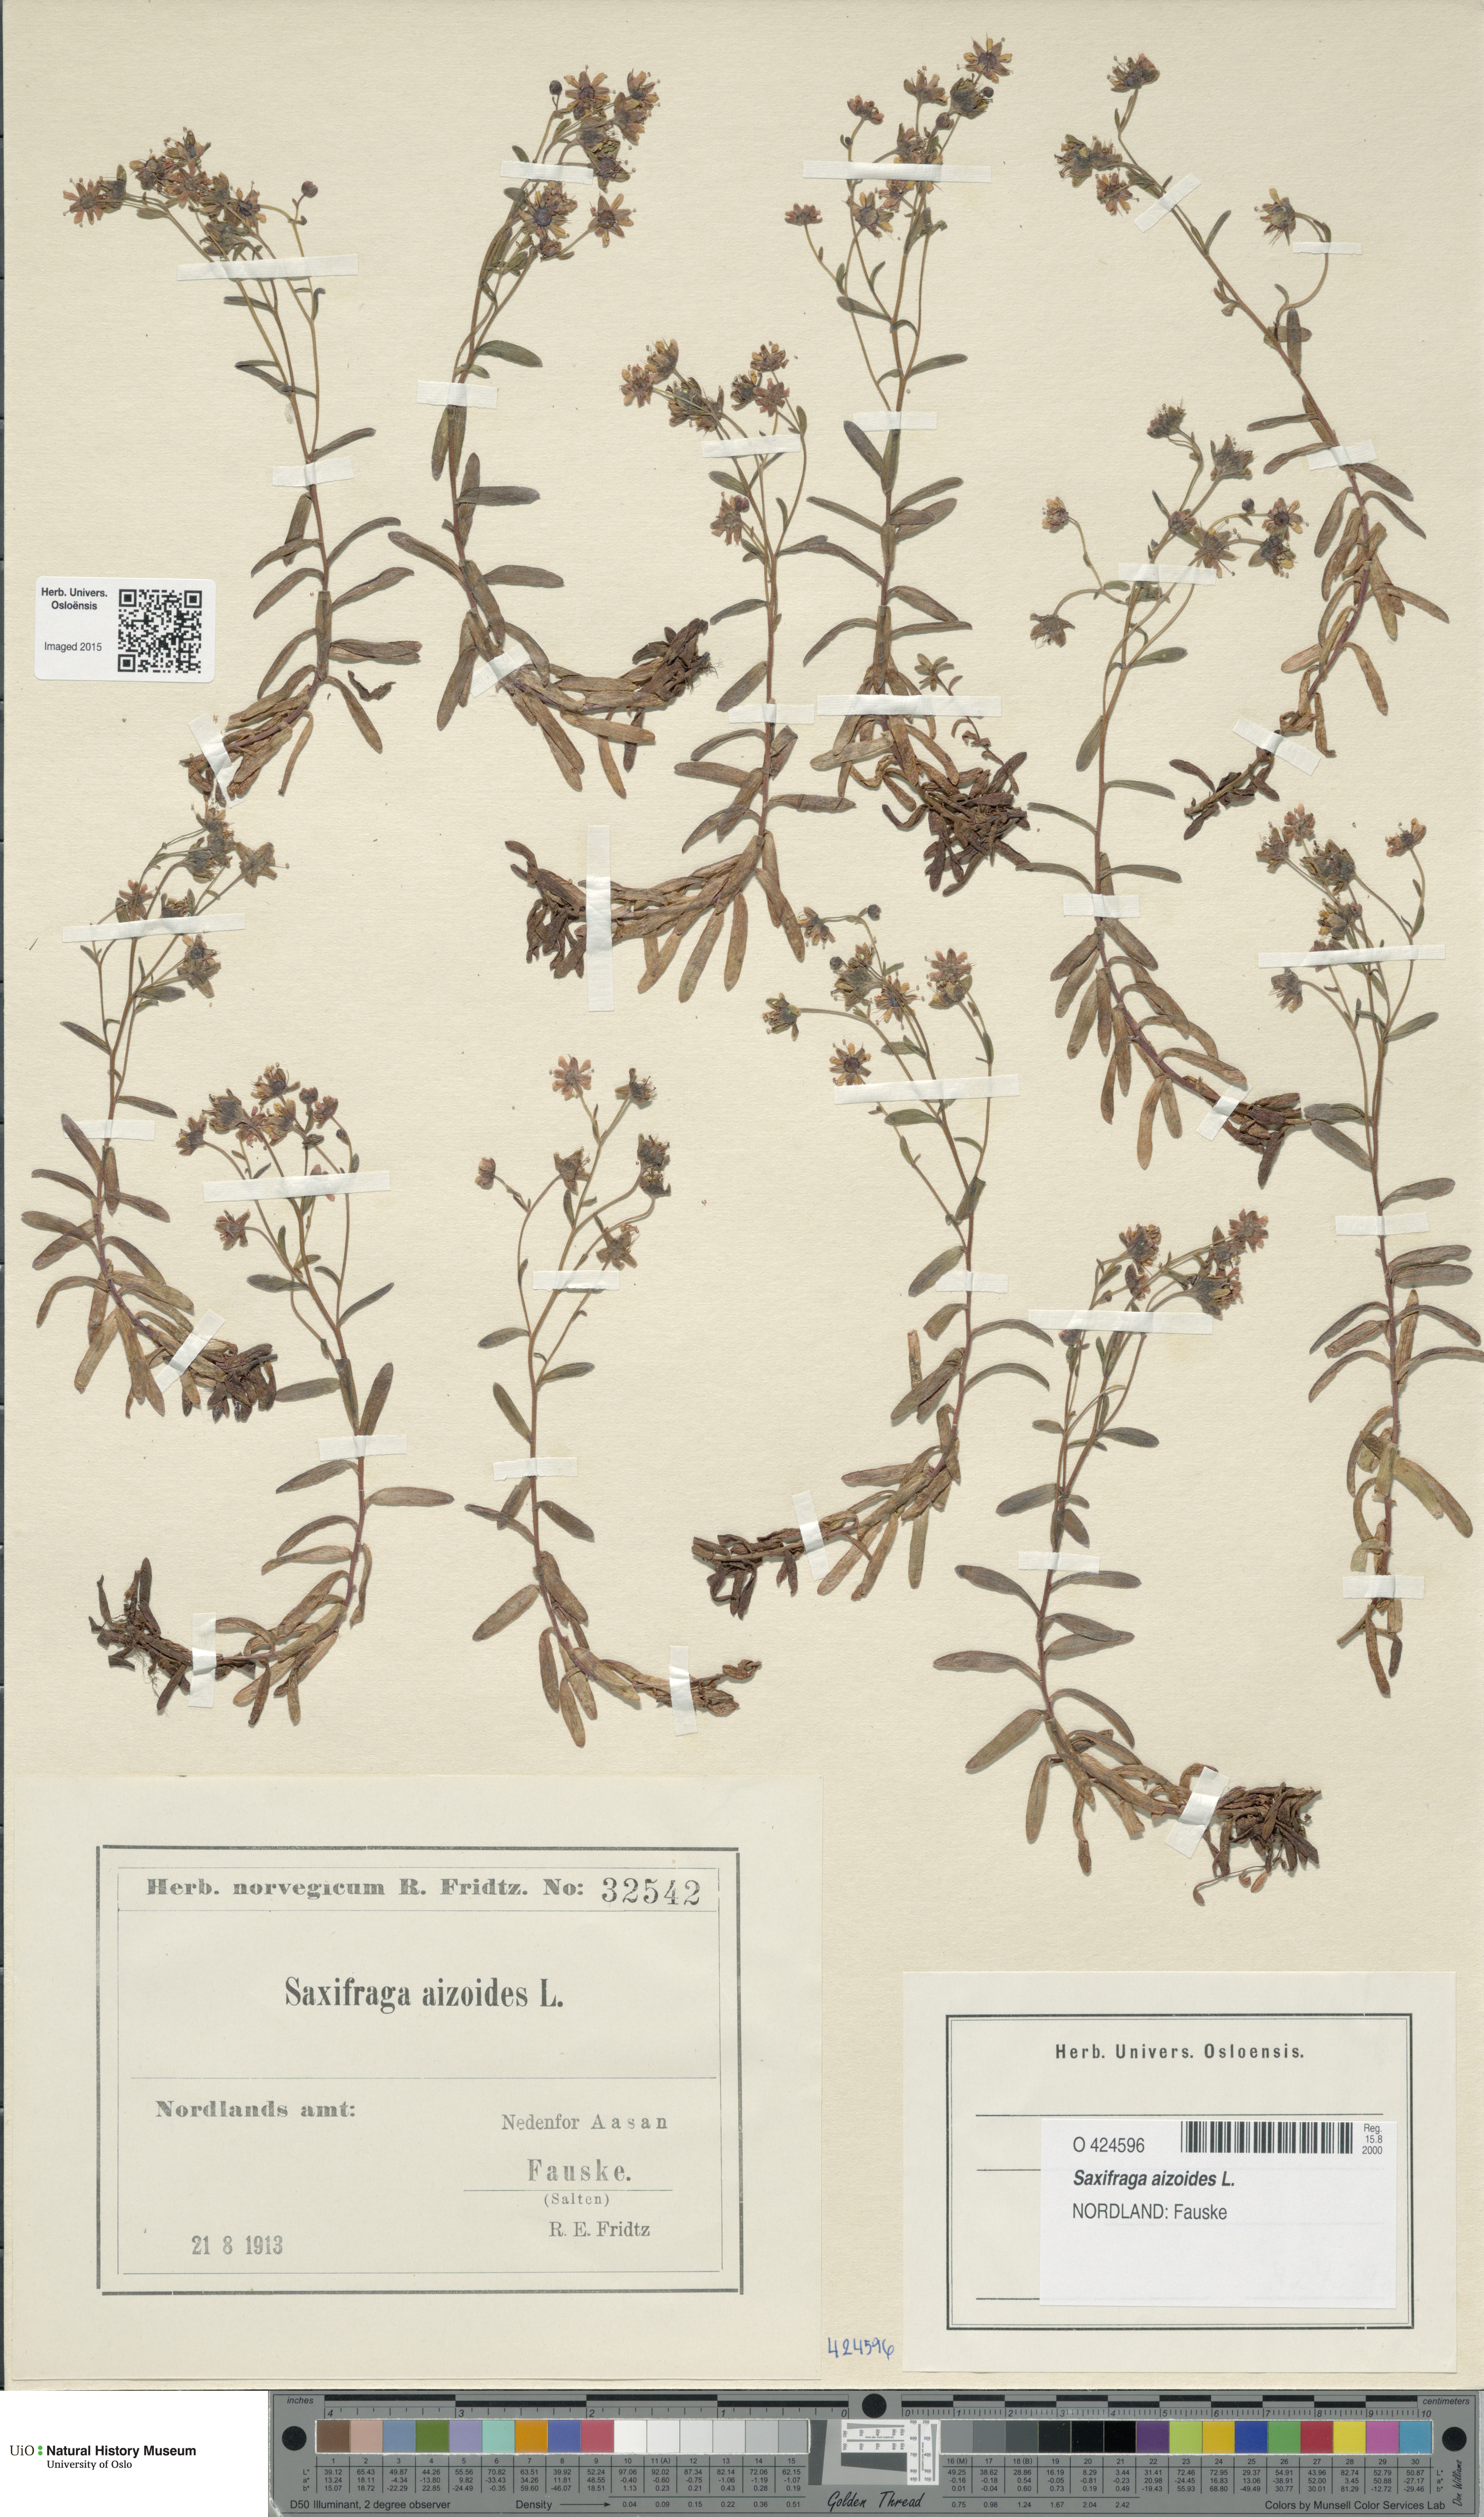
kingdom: Plantae
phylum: Tracheophyta
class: Magnoliopsida
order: Saxifragales
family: Saxifragaceae
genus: Saxifraga
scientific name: Saxifraga aizoides
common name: Yellow mountain saxifrage
